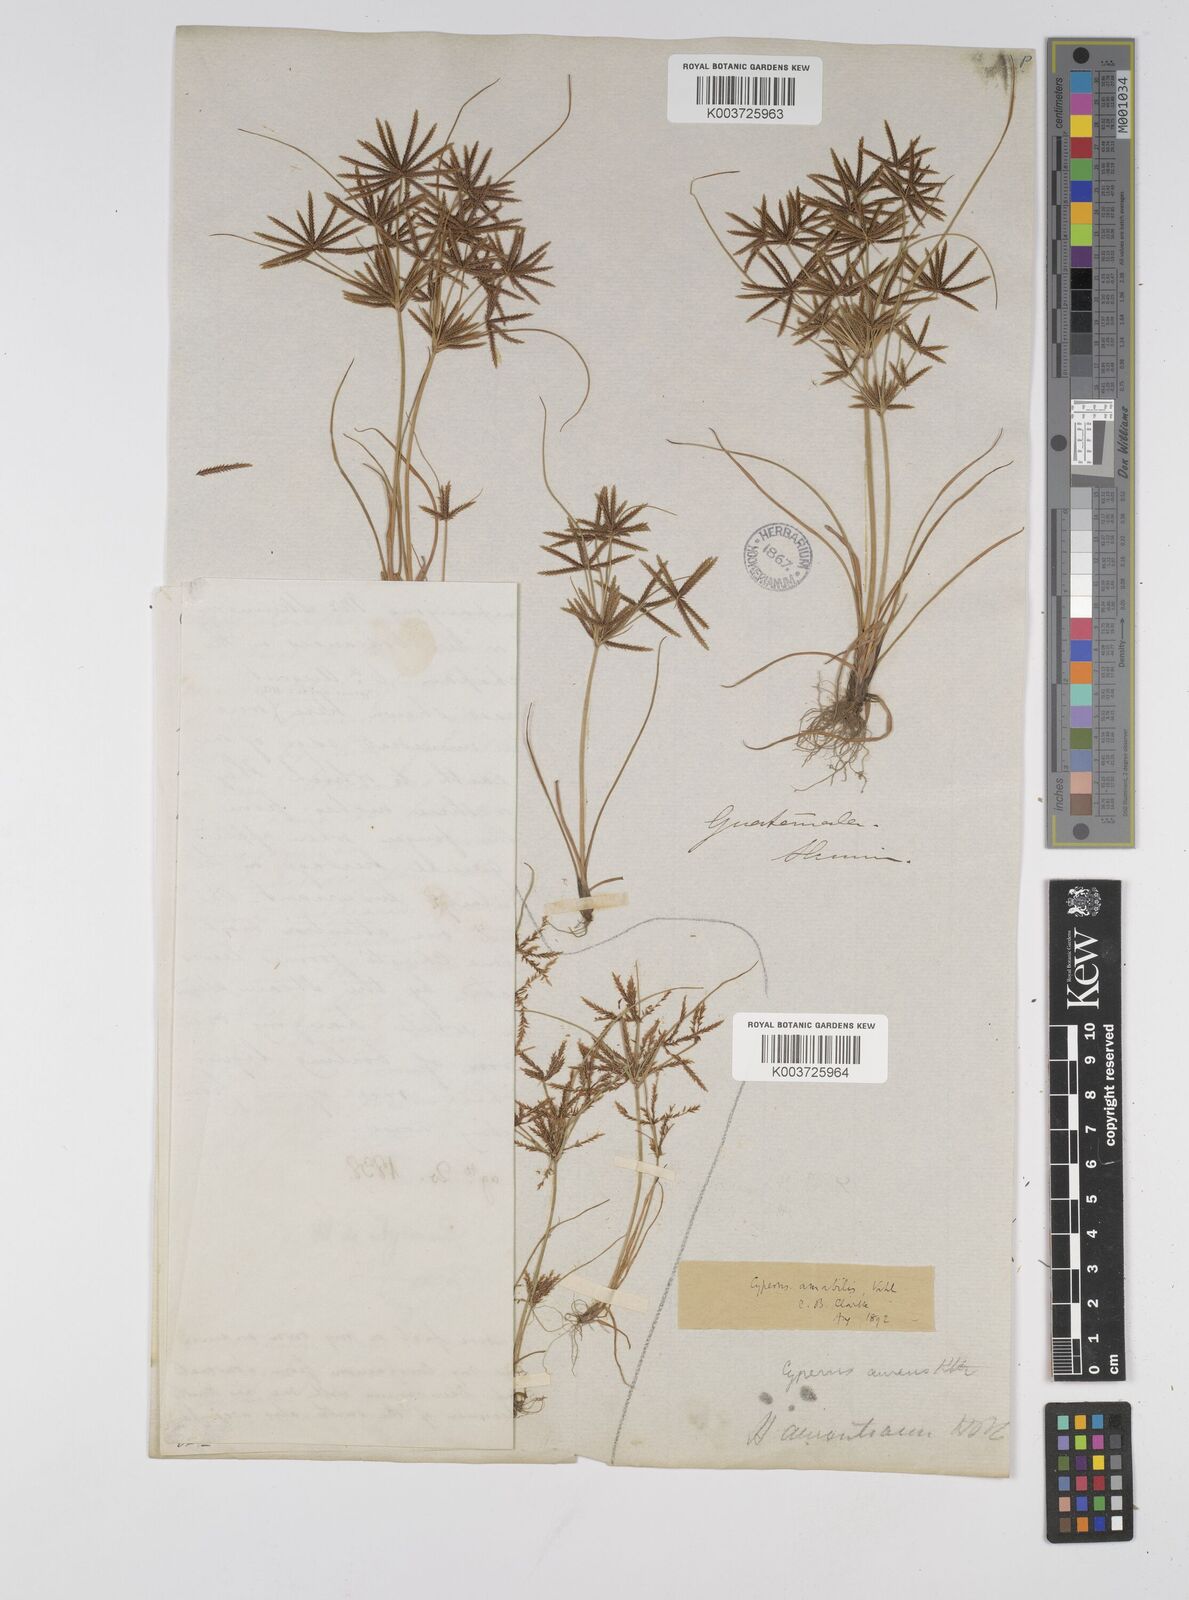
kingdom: Plantae
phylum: Tracheophyta
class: Liliopsida
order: Poales
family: Cyperaceae
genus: Cyperus
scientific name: Cyperus amabilis
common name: Foothill flat sedge
